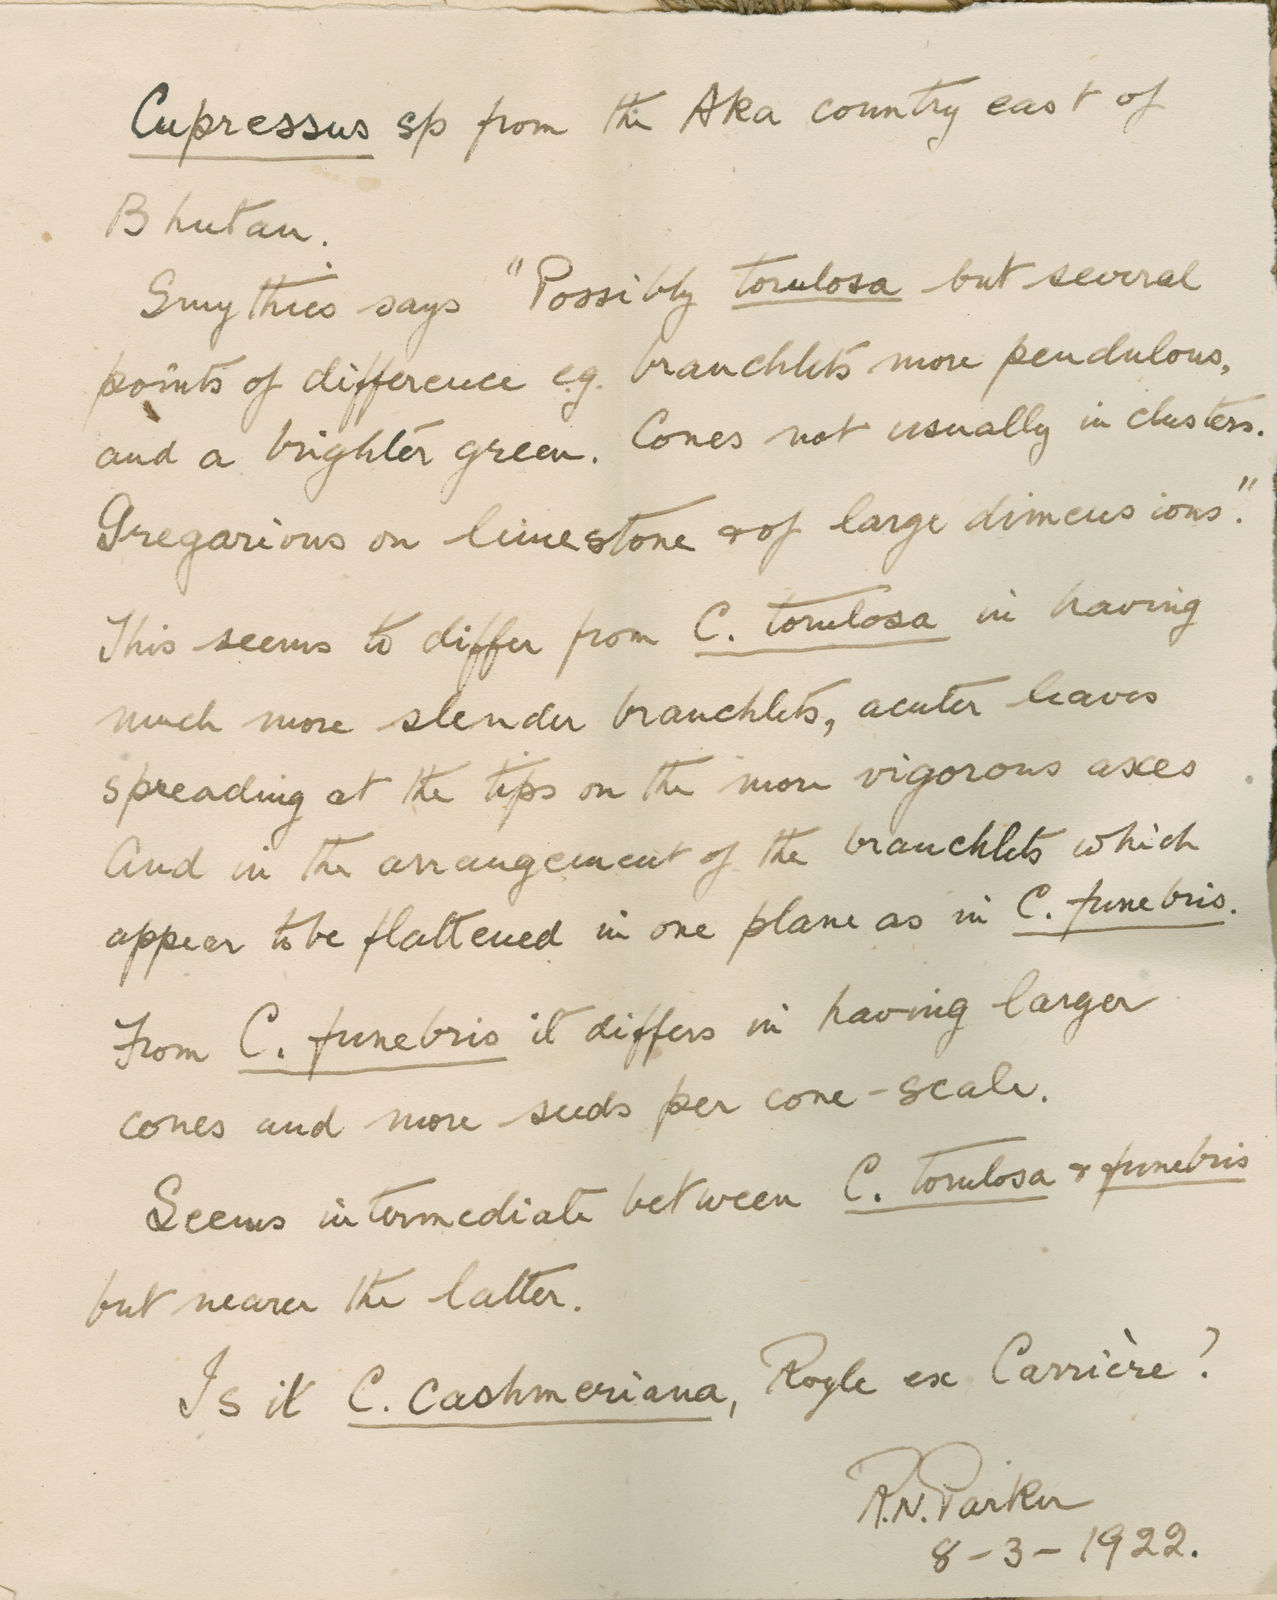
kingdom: Plantae
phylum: Tracheophyta
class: Pinopsida
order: Pinales
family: Cupressaceae
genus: Cupressus
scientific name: Cupressus
